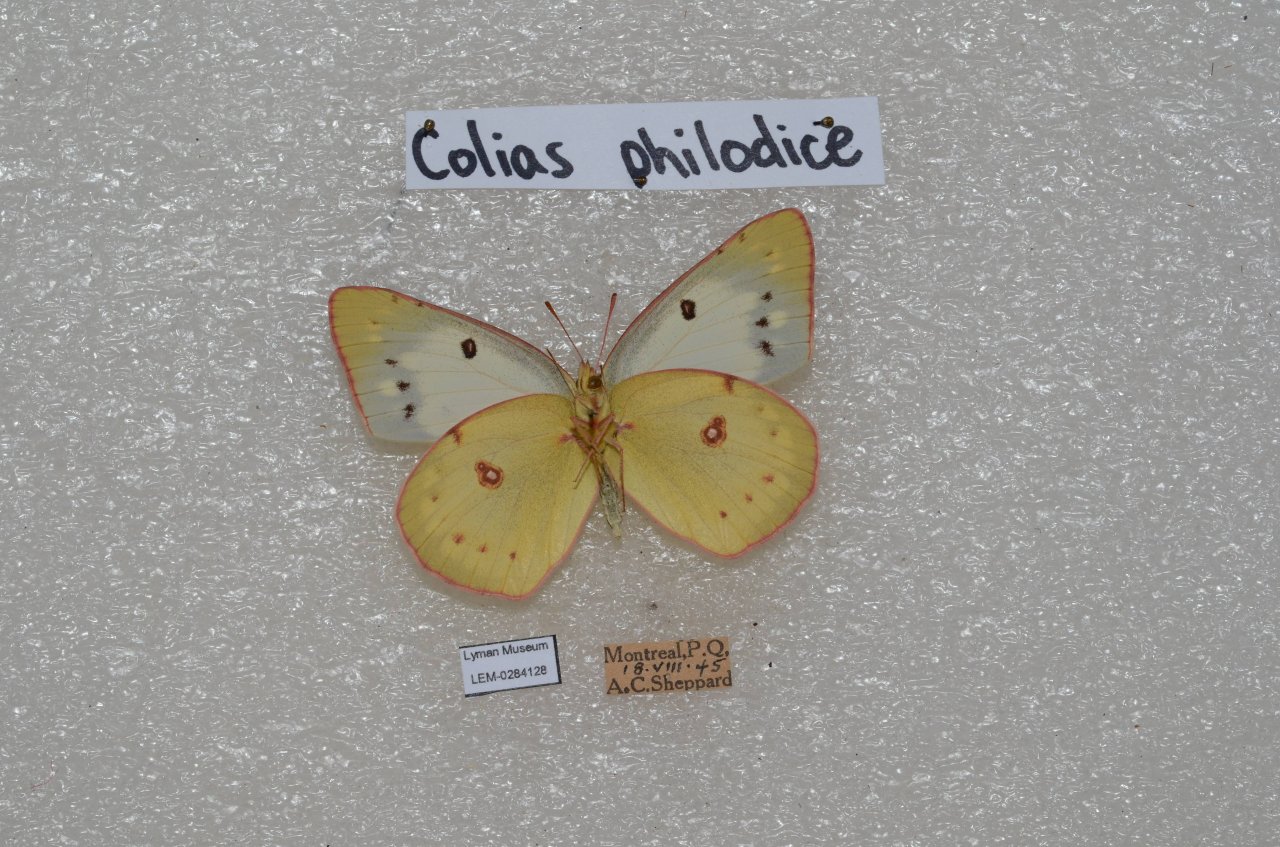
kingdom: Animalia
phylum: Arthropoda
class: Insecta
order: Lepidoptera
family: Pieridae
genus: Colias
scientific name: Colias philodice
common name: Clouded Sulphur
